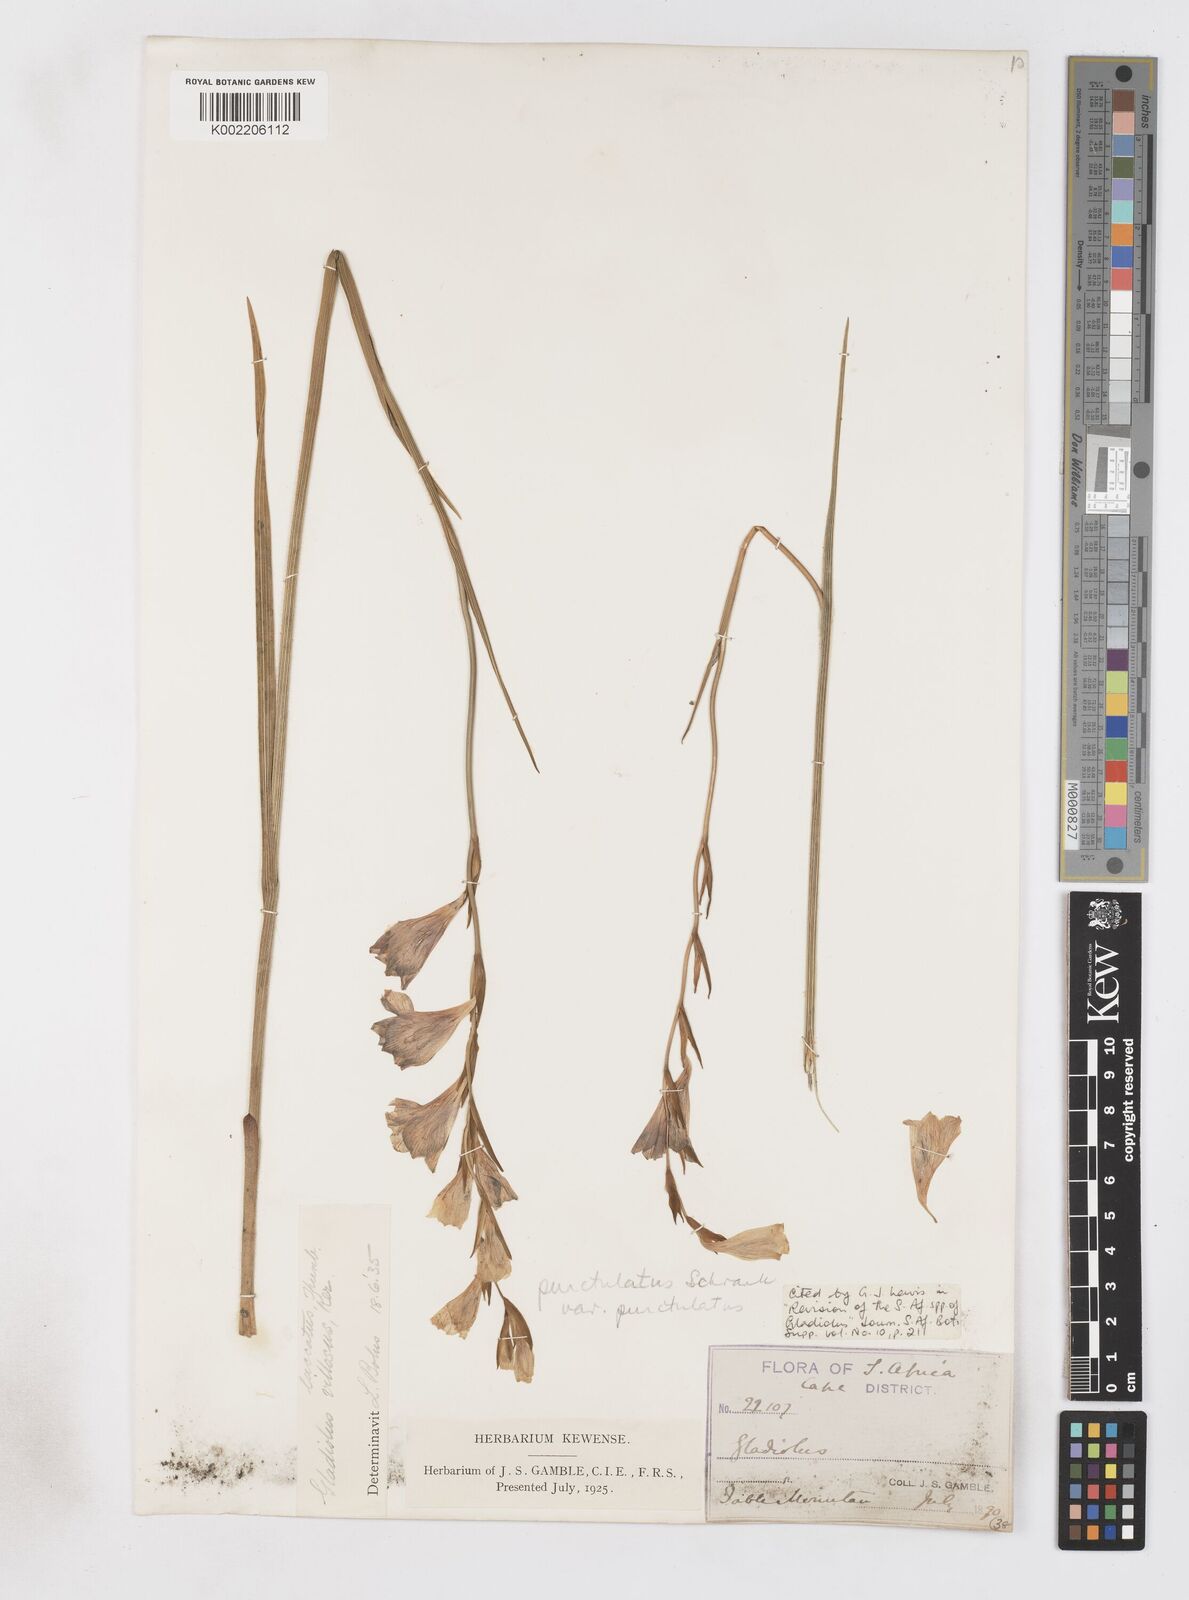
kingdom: Plantae
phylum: Tracheophyta
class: Liliopsida
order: Asparagales
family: Iridaceae
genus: Gladiolus
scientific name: Gladiolus hirsutus
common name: Small pink afrikaner
